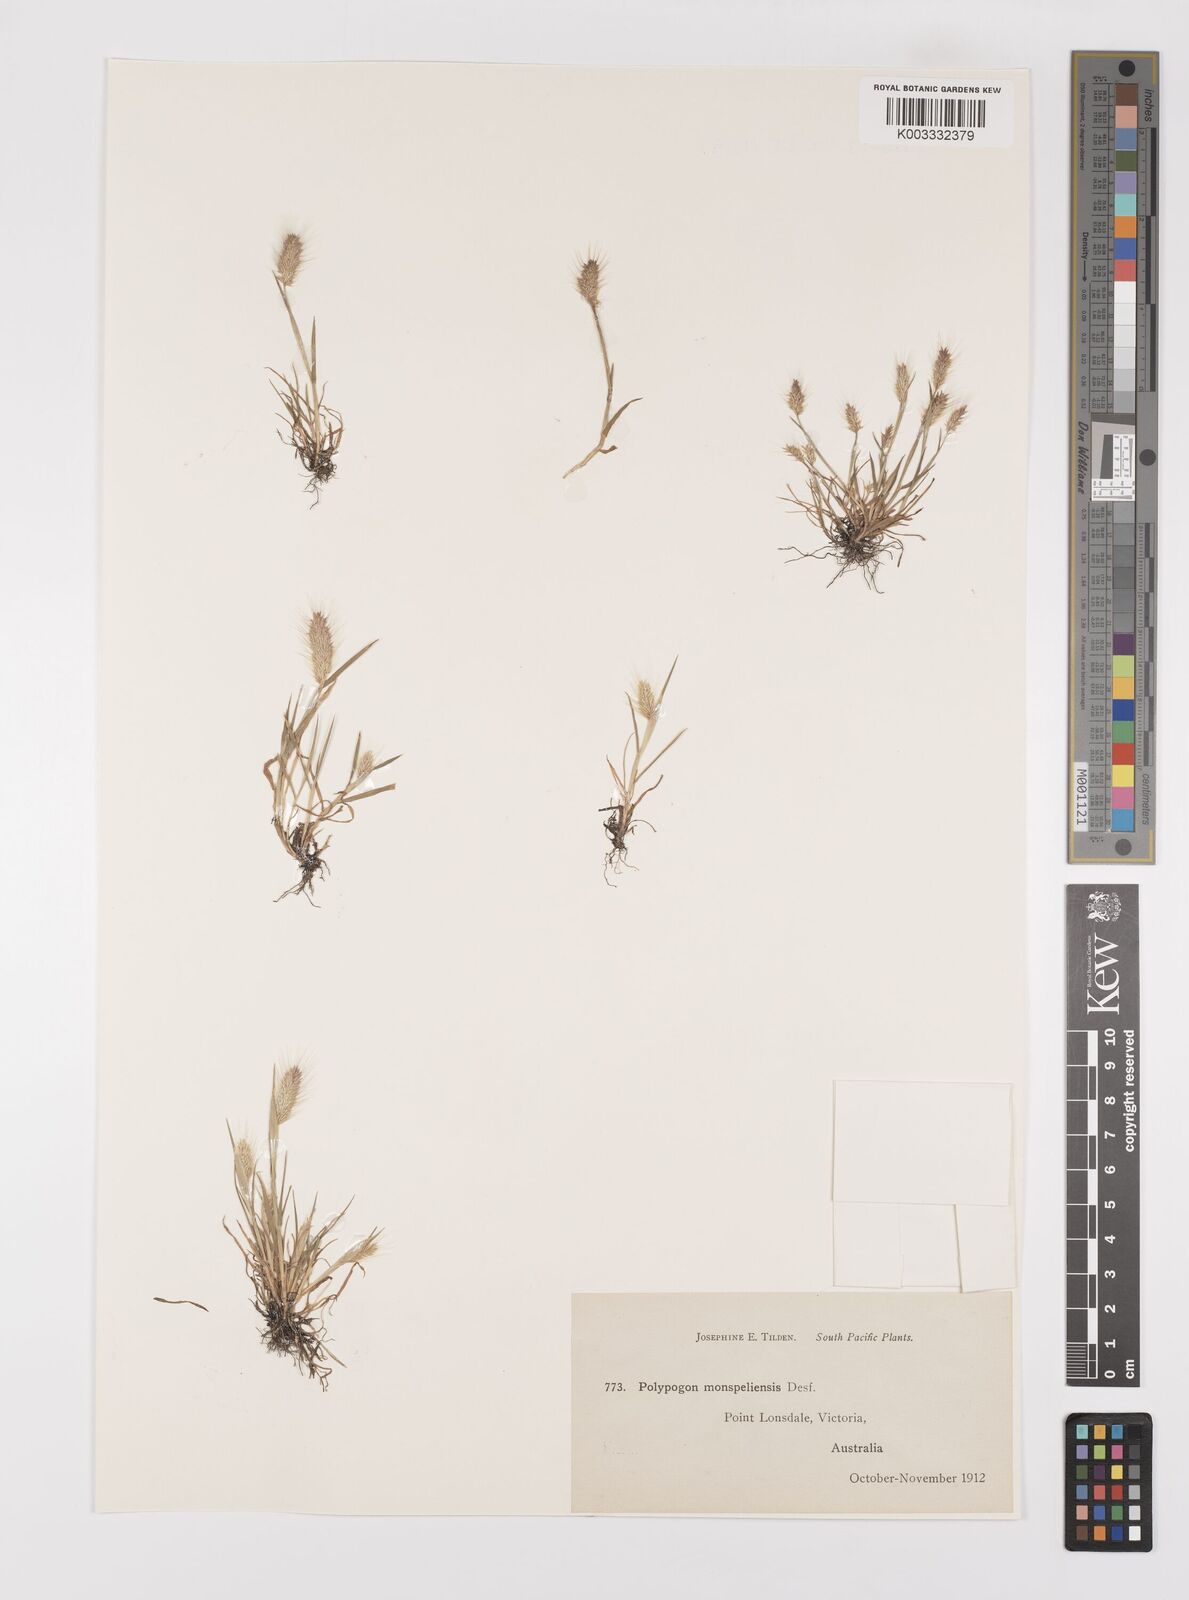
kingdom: Plantae
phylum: Tracheophyta
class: Liliopsida
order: Poales
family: Poaceae
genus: Polypogon
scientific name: Polypogon monspeliensis
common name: Annual rabbitsfoot grass
